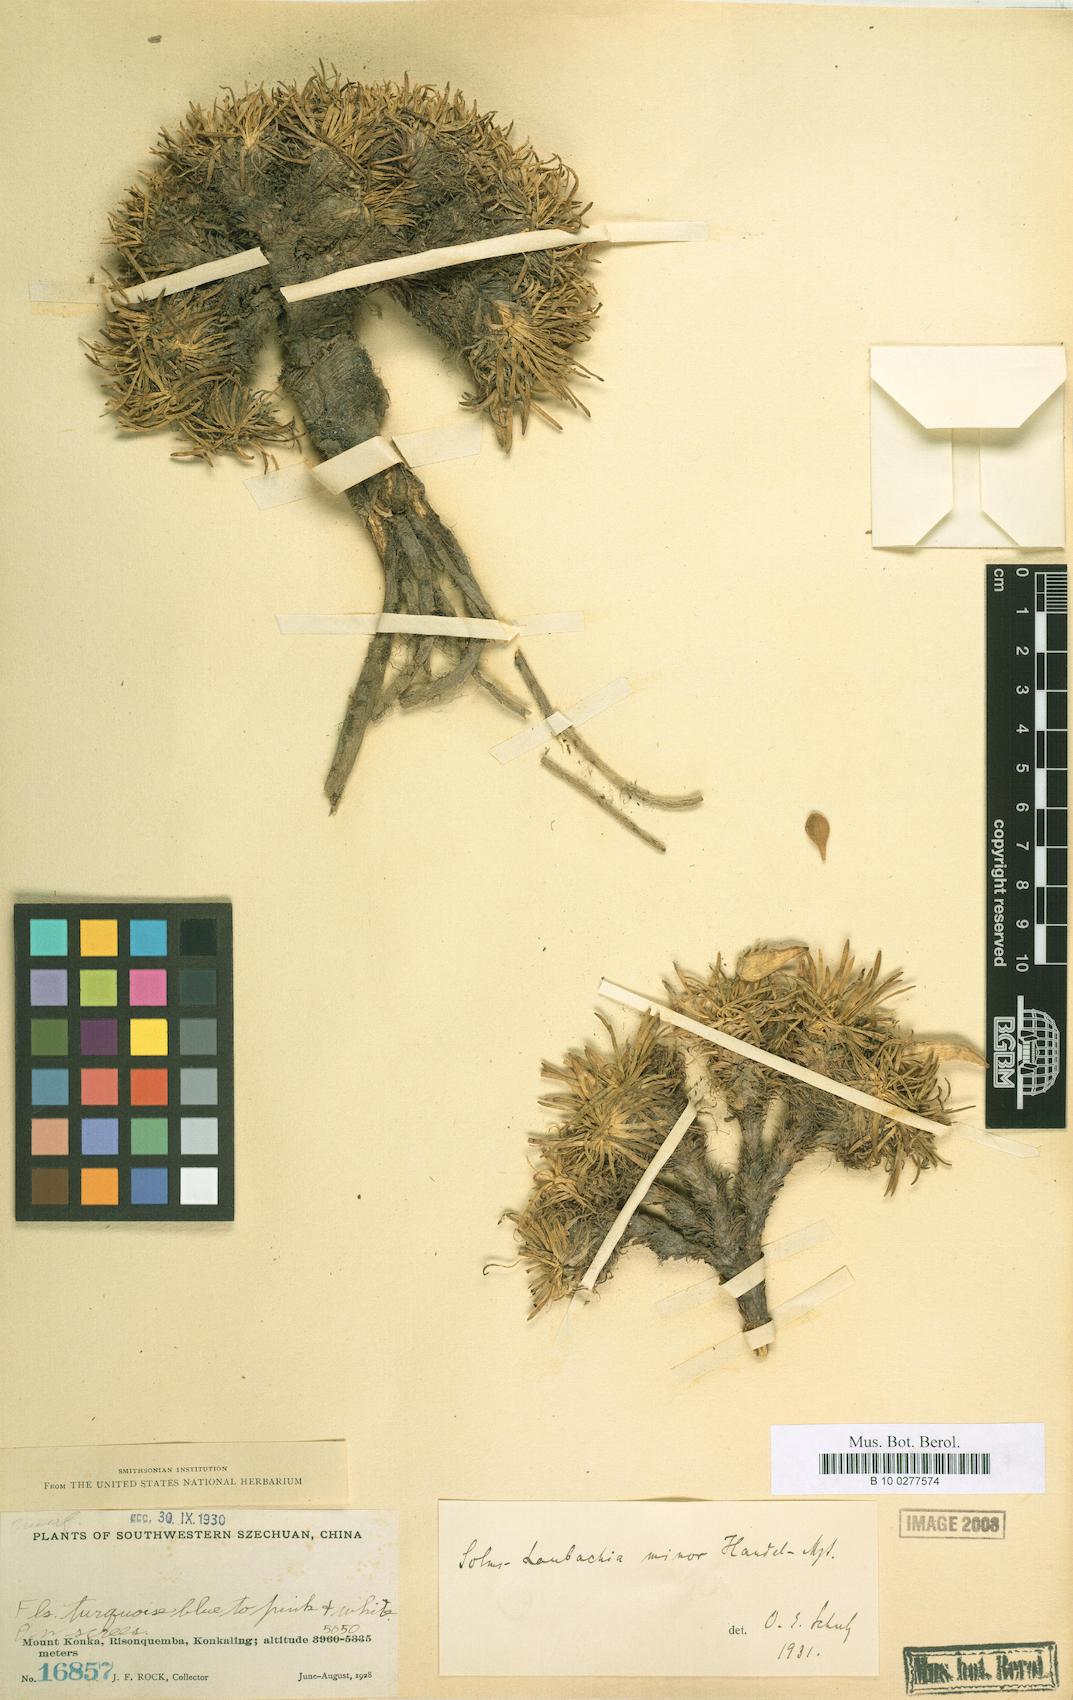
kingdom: Plantae
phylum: Tracheophyta
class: Magnoliopsida
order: Brassicales
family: Brassicaceae
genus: Solms-laubachia
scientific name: Solms-laubachia angustifolia
